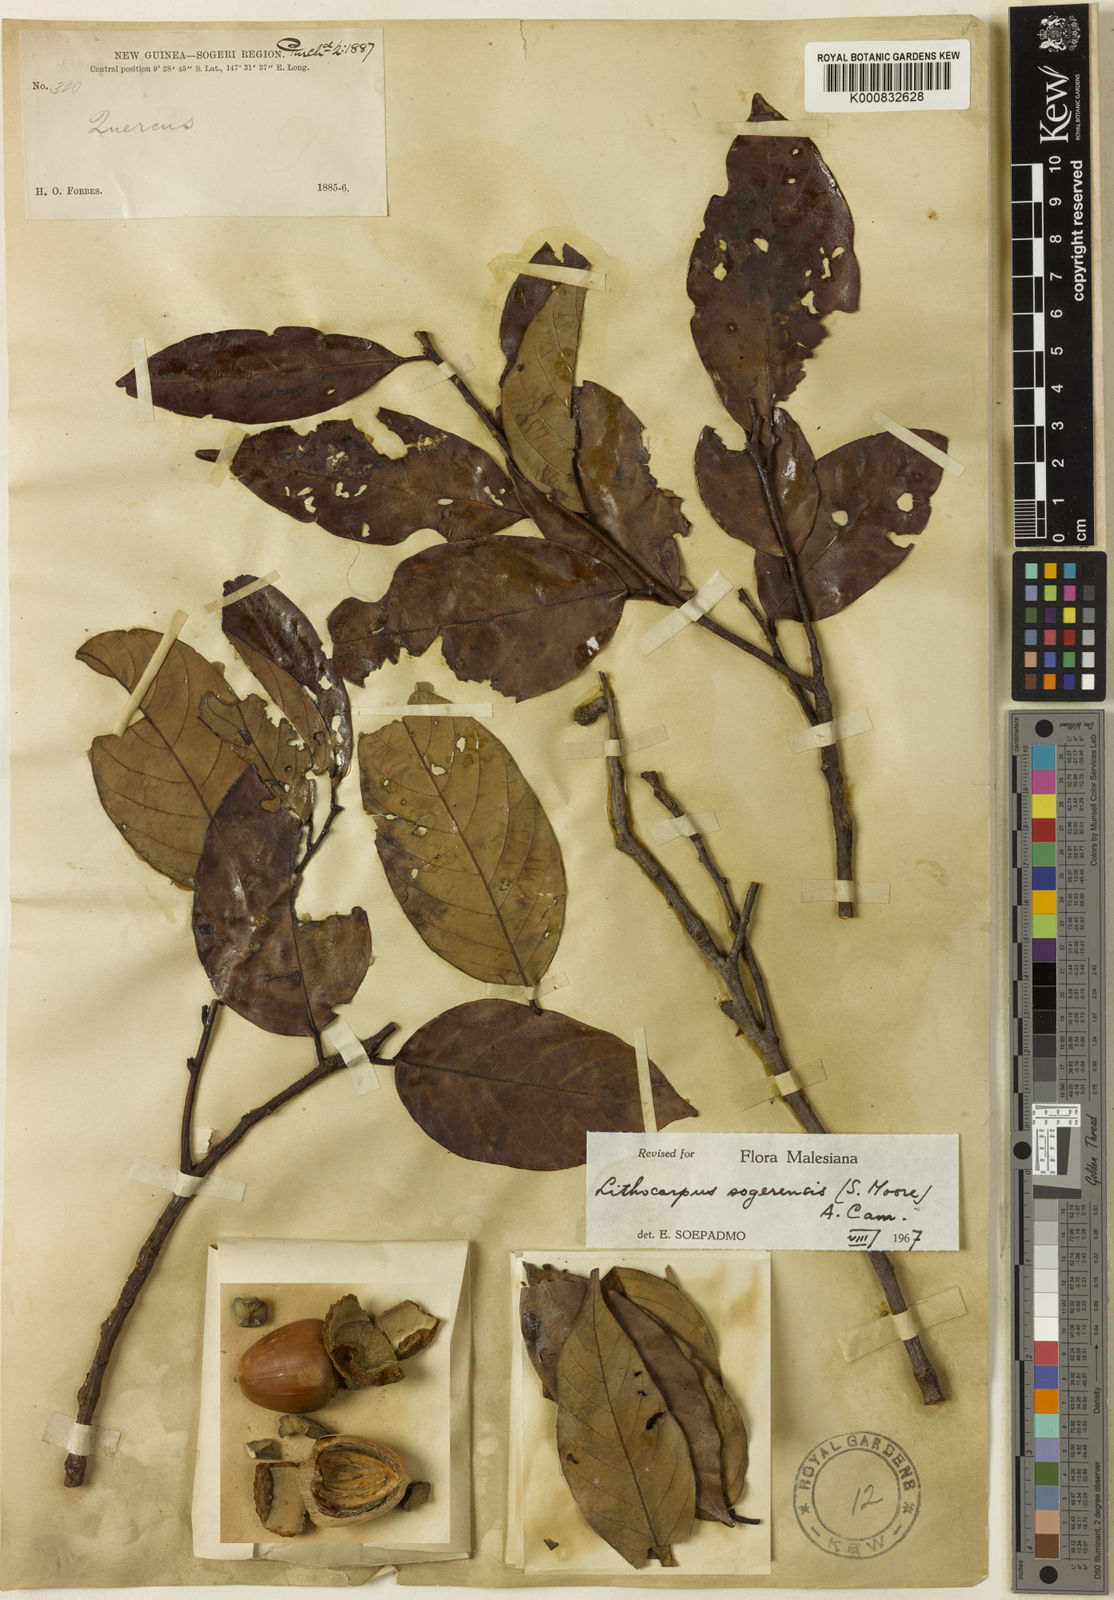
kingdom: Plantae
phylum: Tracheophyta
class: Magnoliopsida
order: Fagales
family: Fagaceae
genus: Lithocarpus
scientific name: Lithocarpus sogerensis
